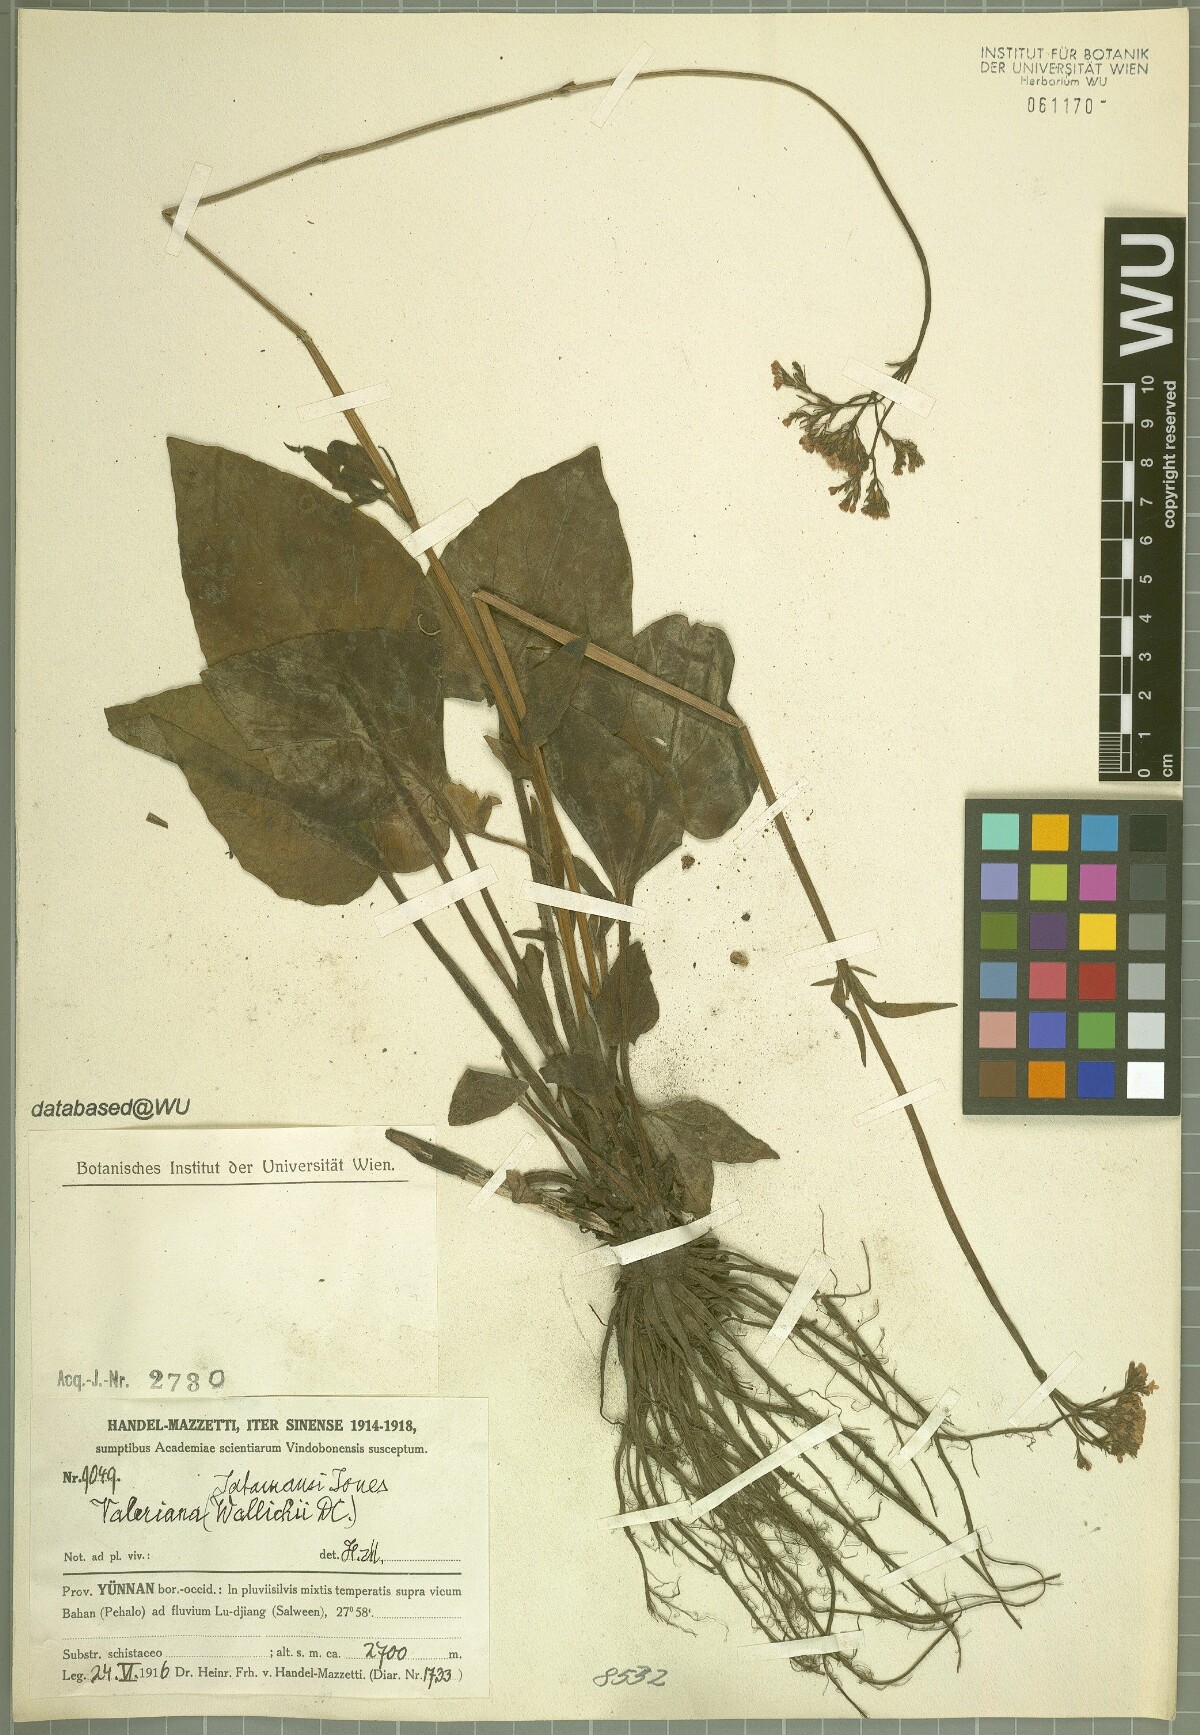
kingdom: Plantae
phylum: Tracheophyta
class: Magnoliopsida
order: Dipsacales
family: Caprifoliaceae
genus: Valeriana
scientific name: Valeriana jatamansi
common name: Indian valerian
